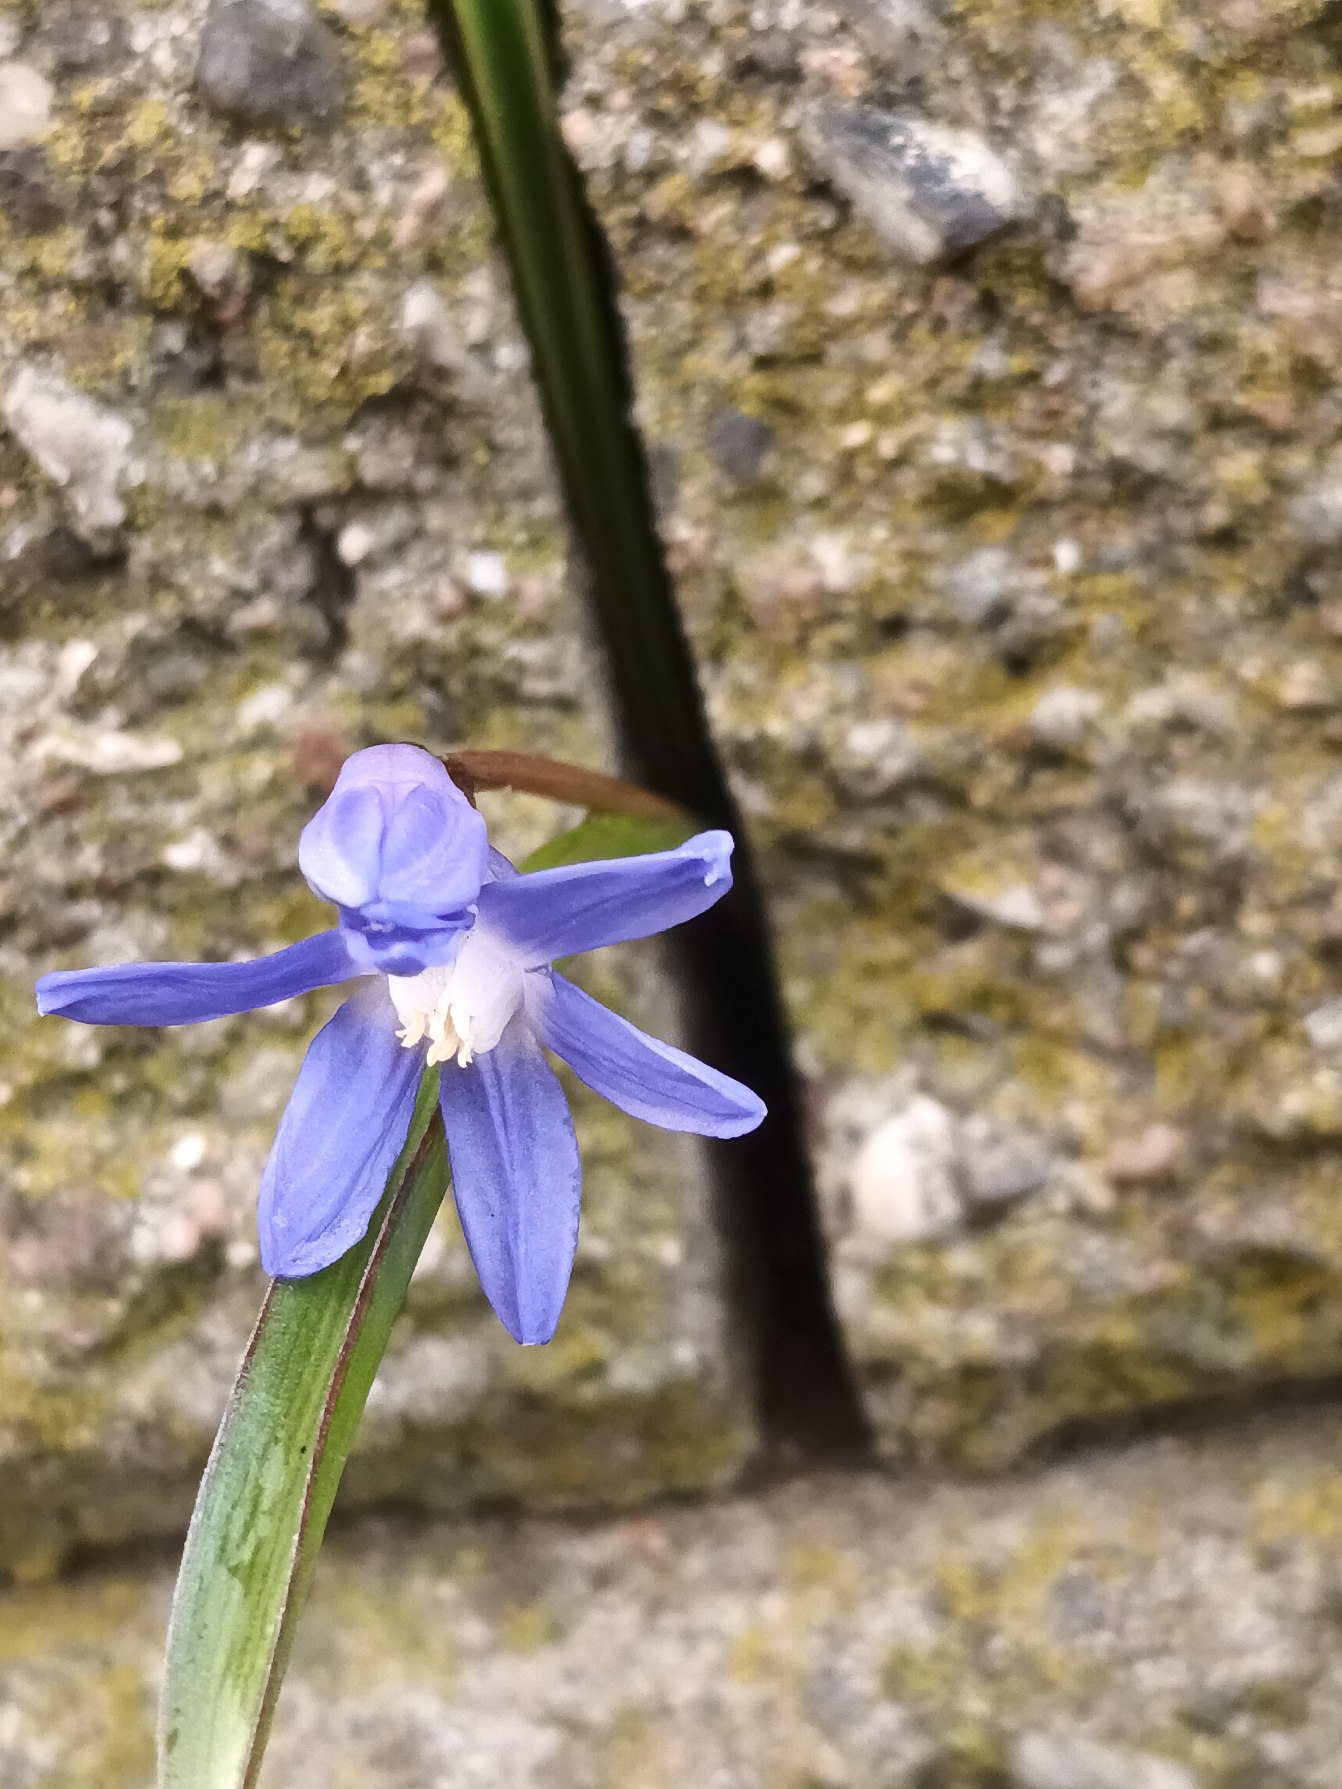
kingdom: Plantae
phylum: Tracheophyta
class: Liliopsida
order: Asparagales
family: Asparagaceae
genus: Scilla
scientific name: Scilla sardensis
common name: Liden snepryd
